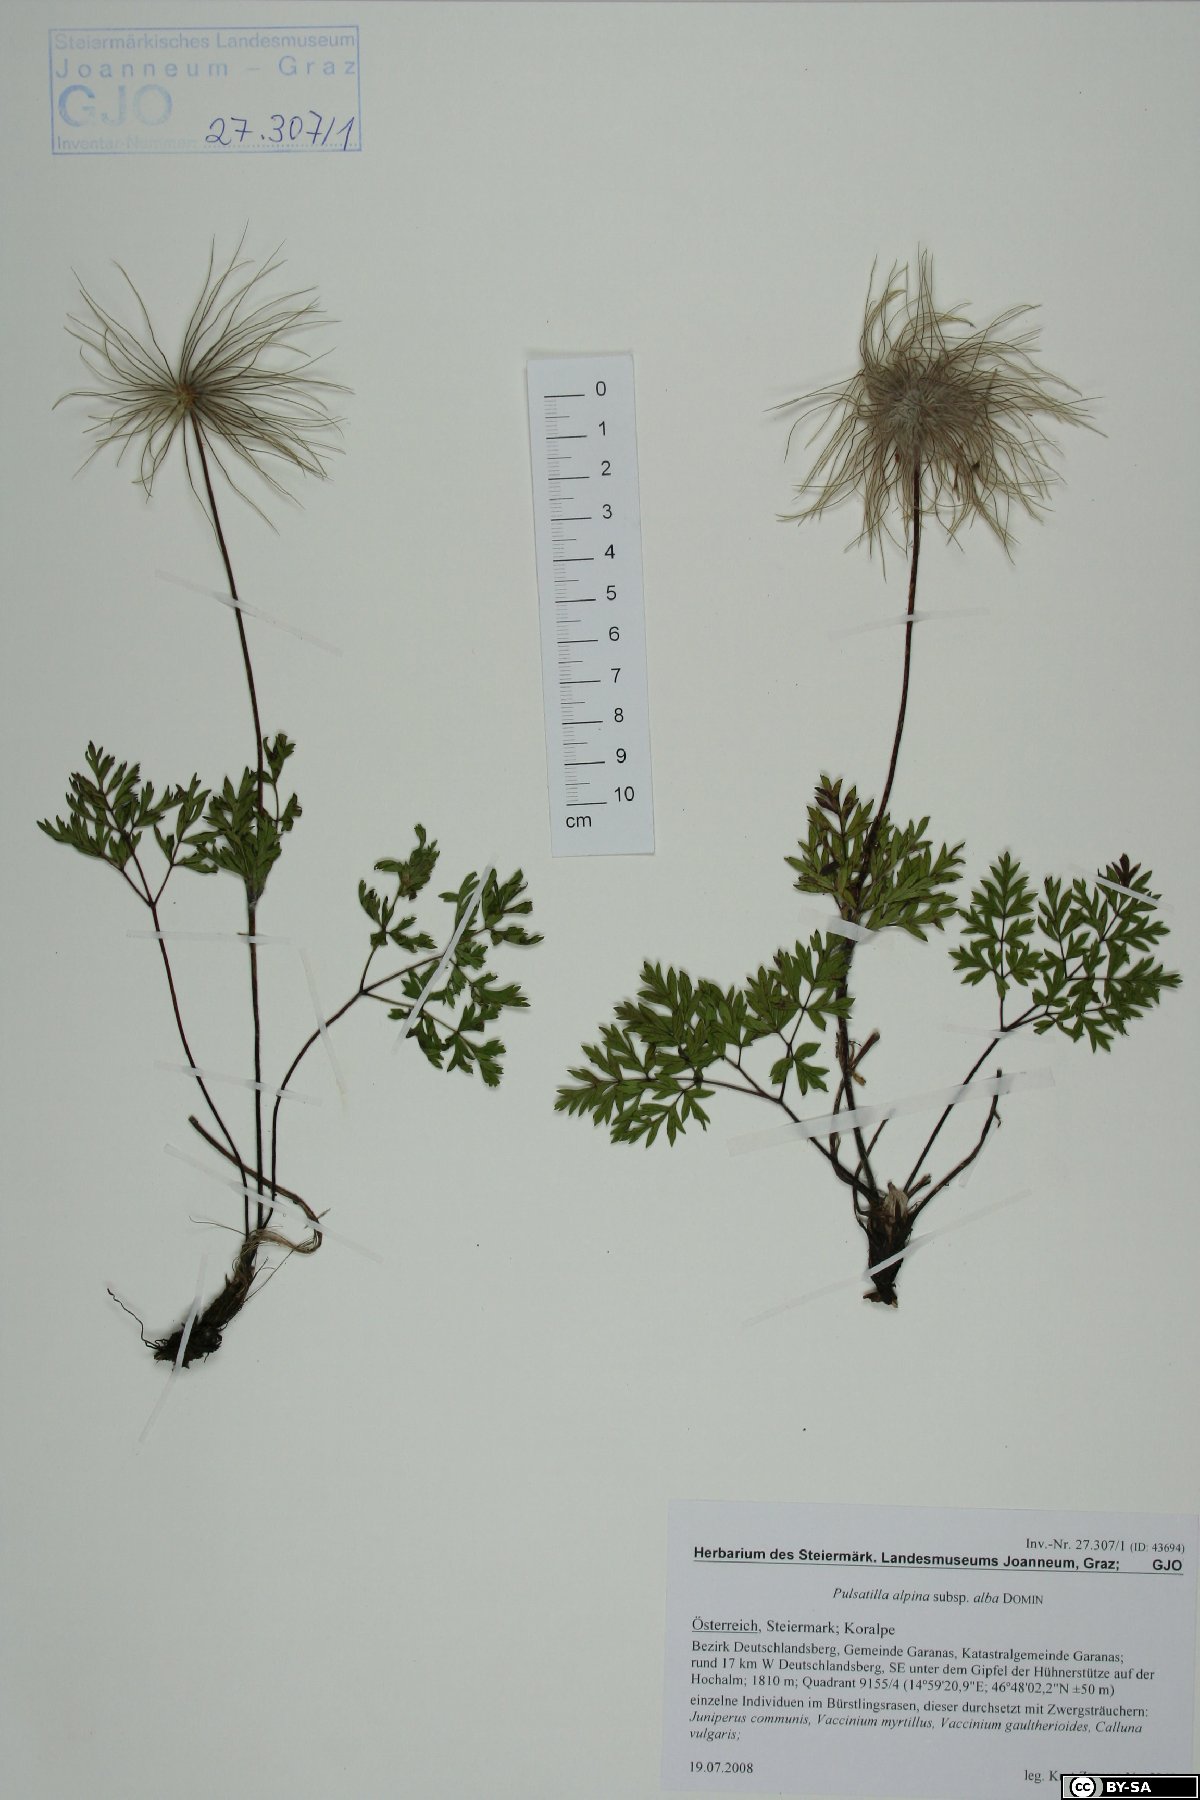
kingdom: Plantae
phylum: Tracheophyta
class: Magnoliopsida
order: Ranunculales
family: Ranunculaceae
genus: Pulsatilla
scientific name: Pulsatilla alpina
